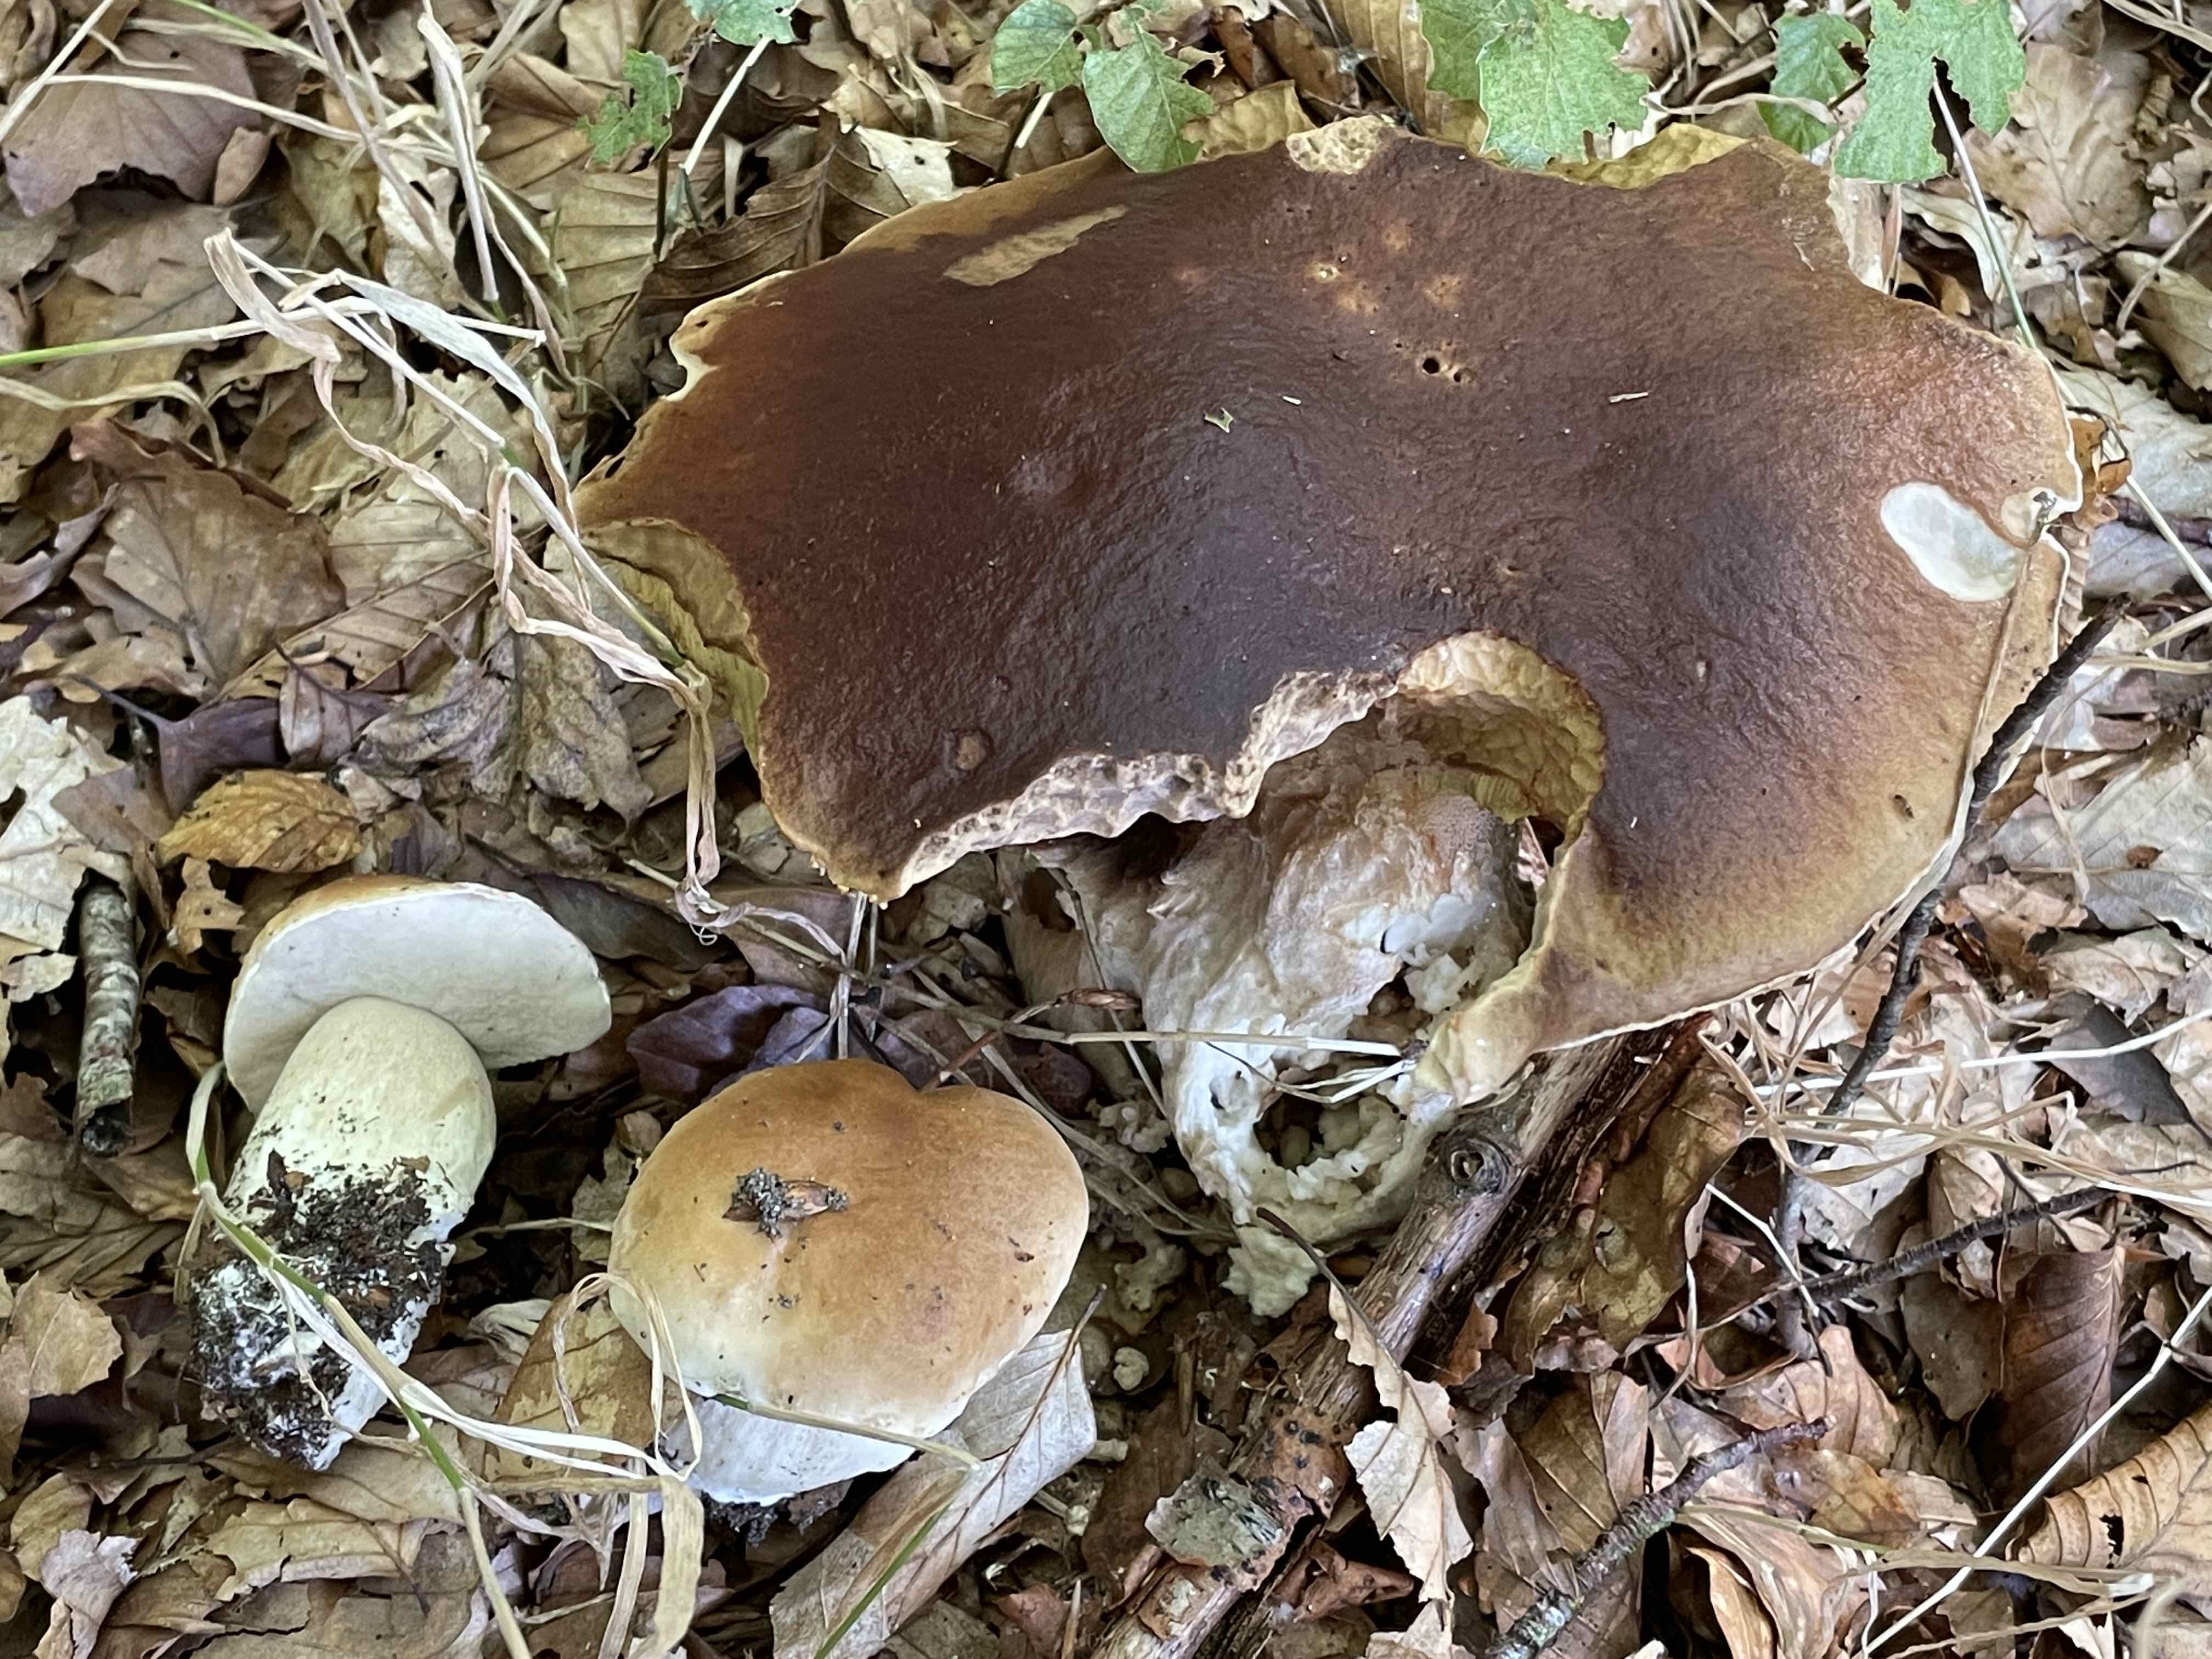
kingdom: Fungi
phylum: Basidiomycota
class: Agaricomycetes
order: Boletales
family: Boletaceae
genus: Boletus
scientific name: Boletus edulis
